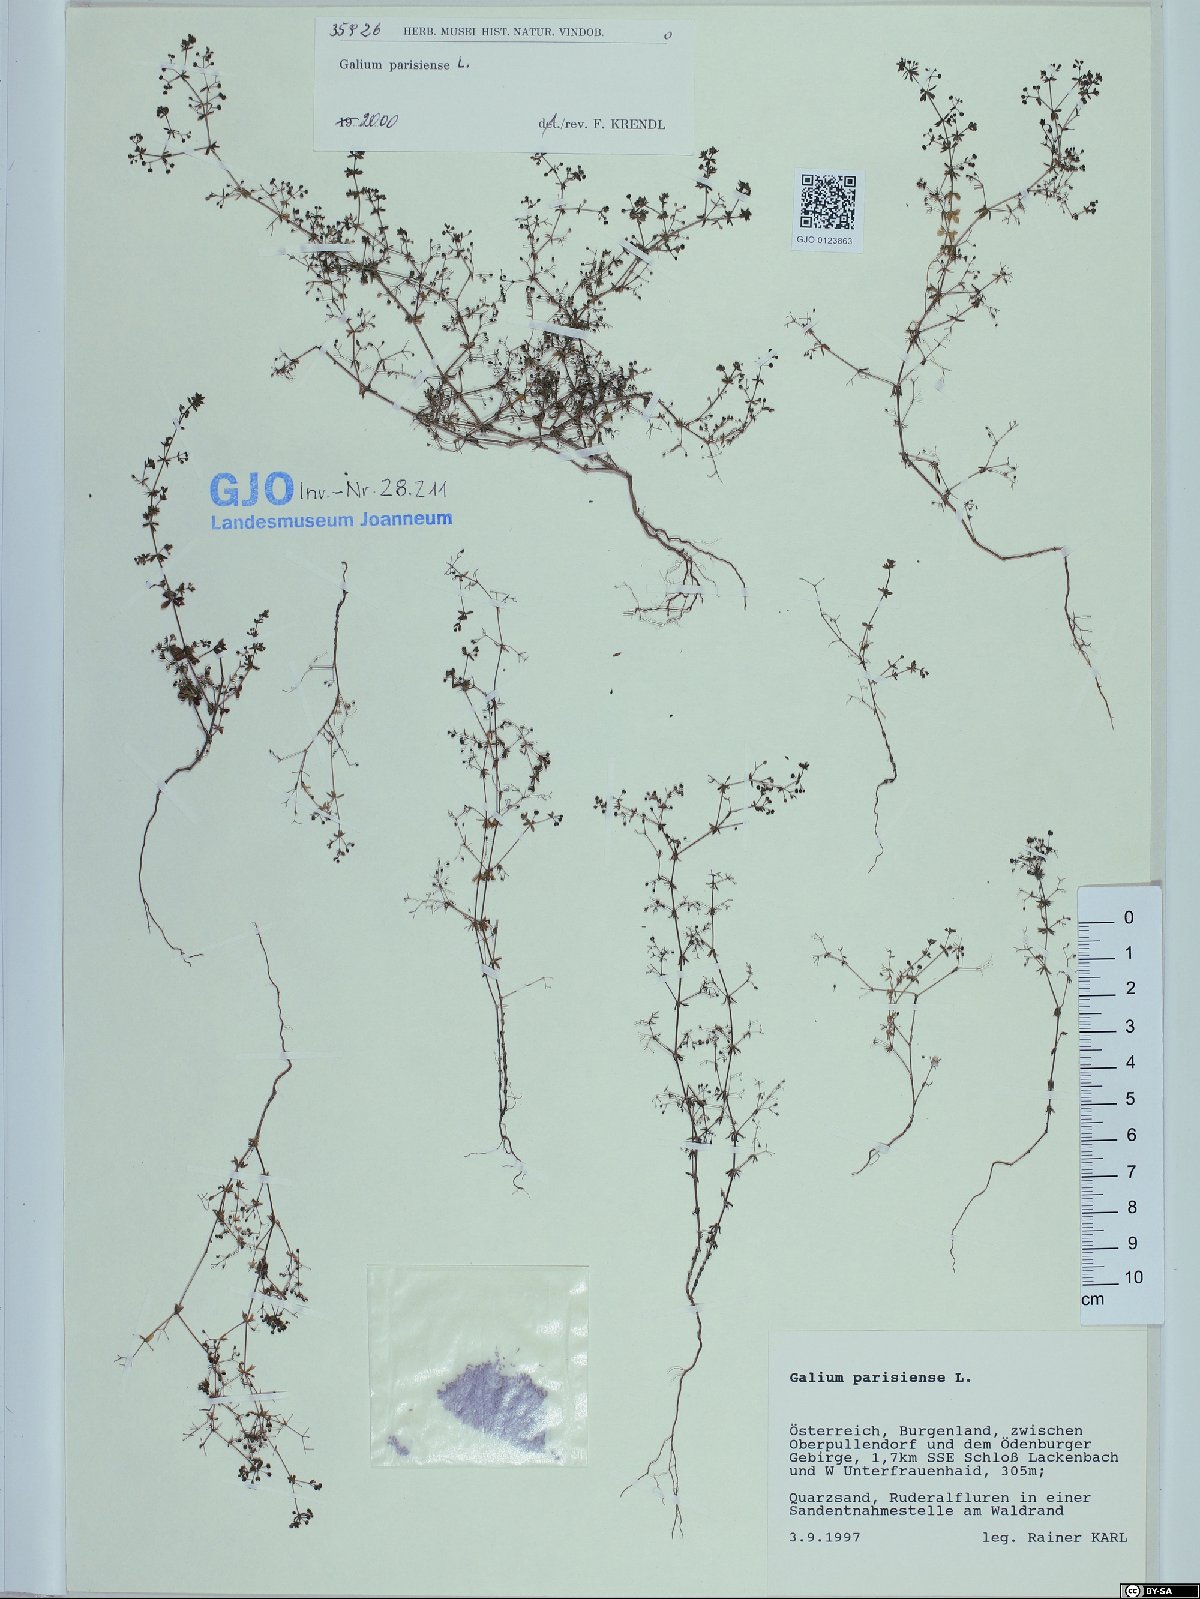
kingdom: Plantae
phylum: Tracheophyta
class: Magnoliopsida
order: Gentianales
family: Rubiaceae
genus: Galium
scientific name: Galium parisiense
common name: Wall bedstraw
